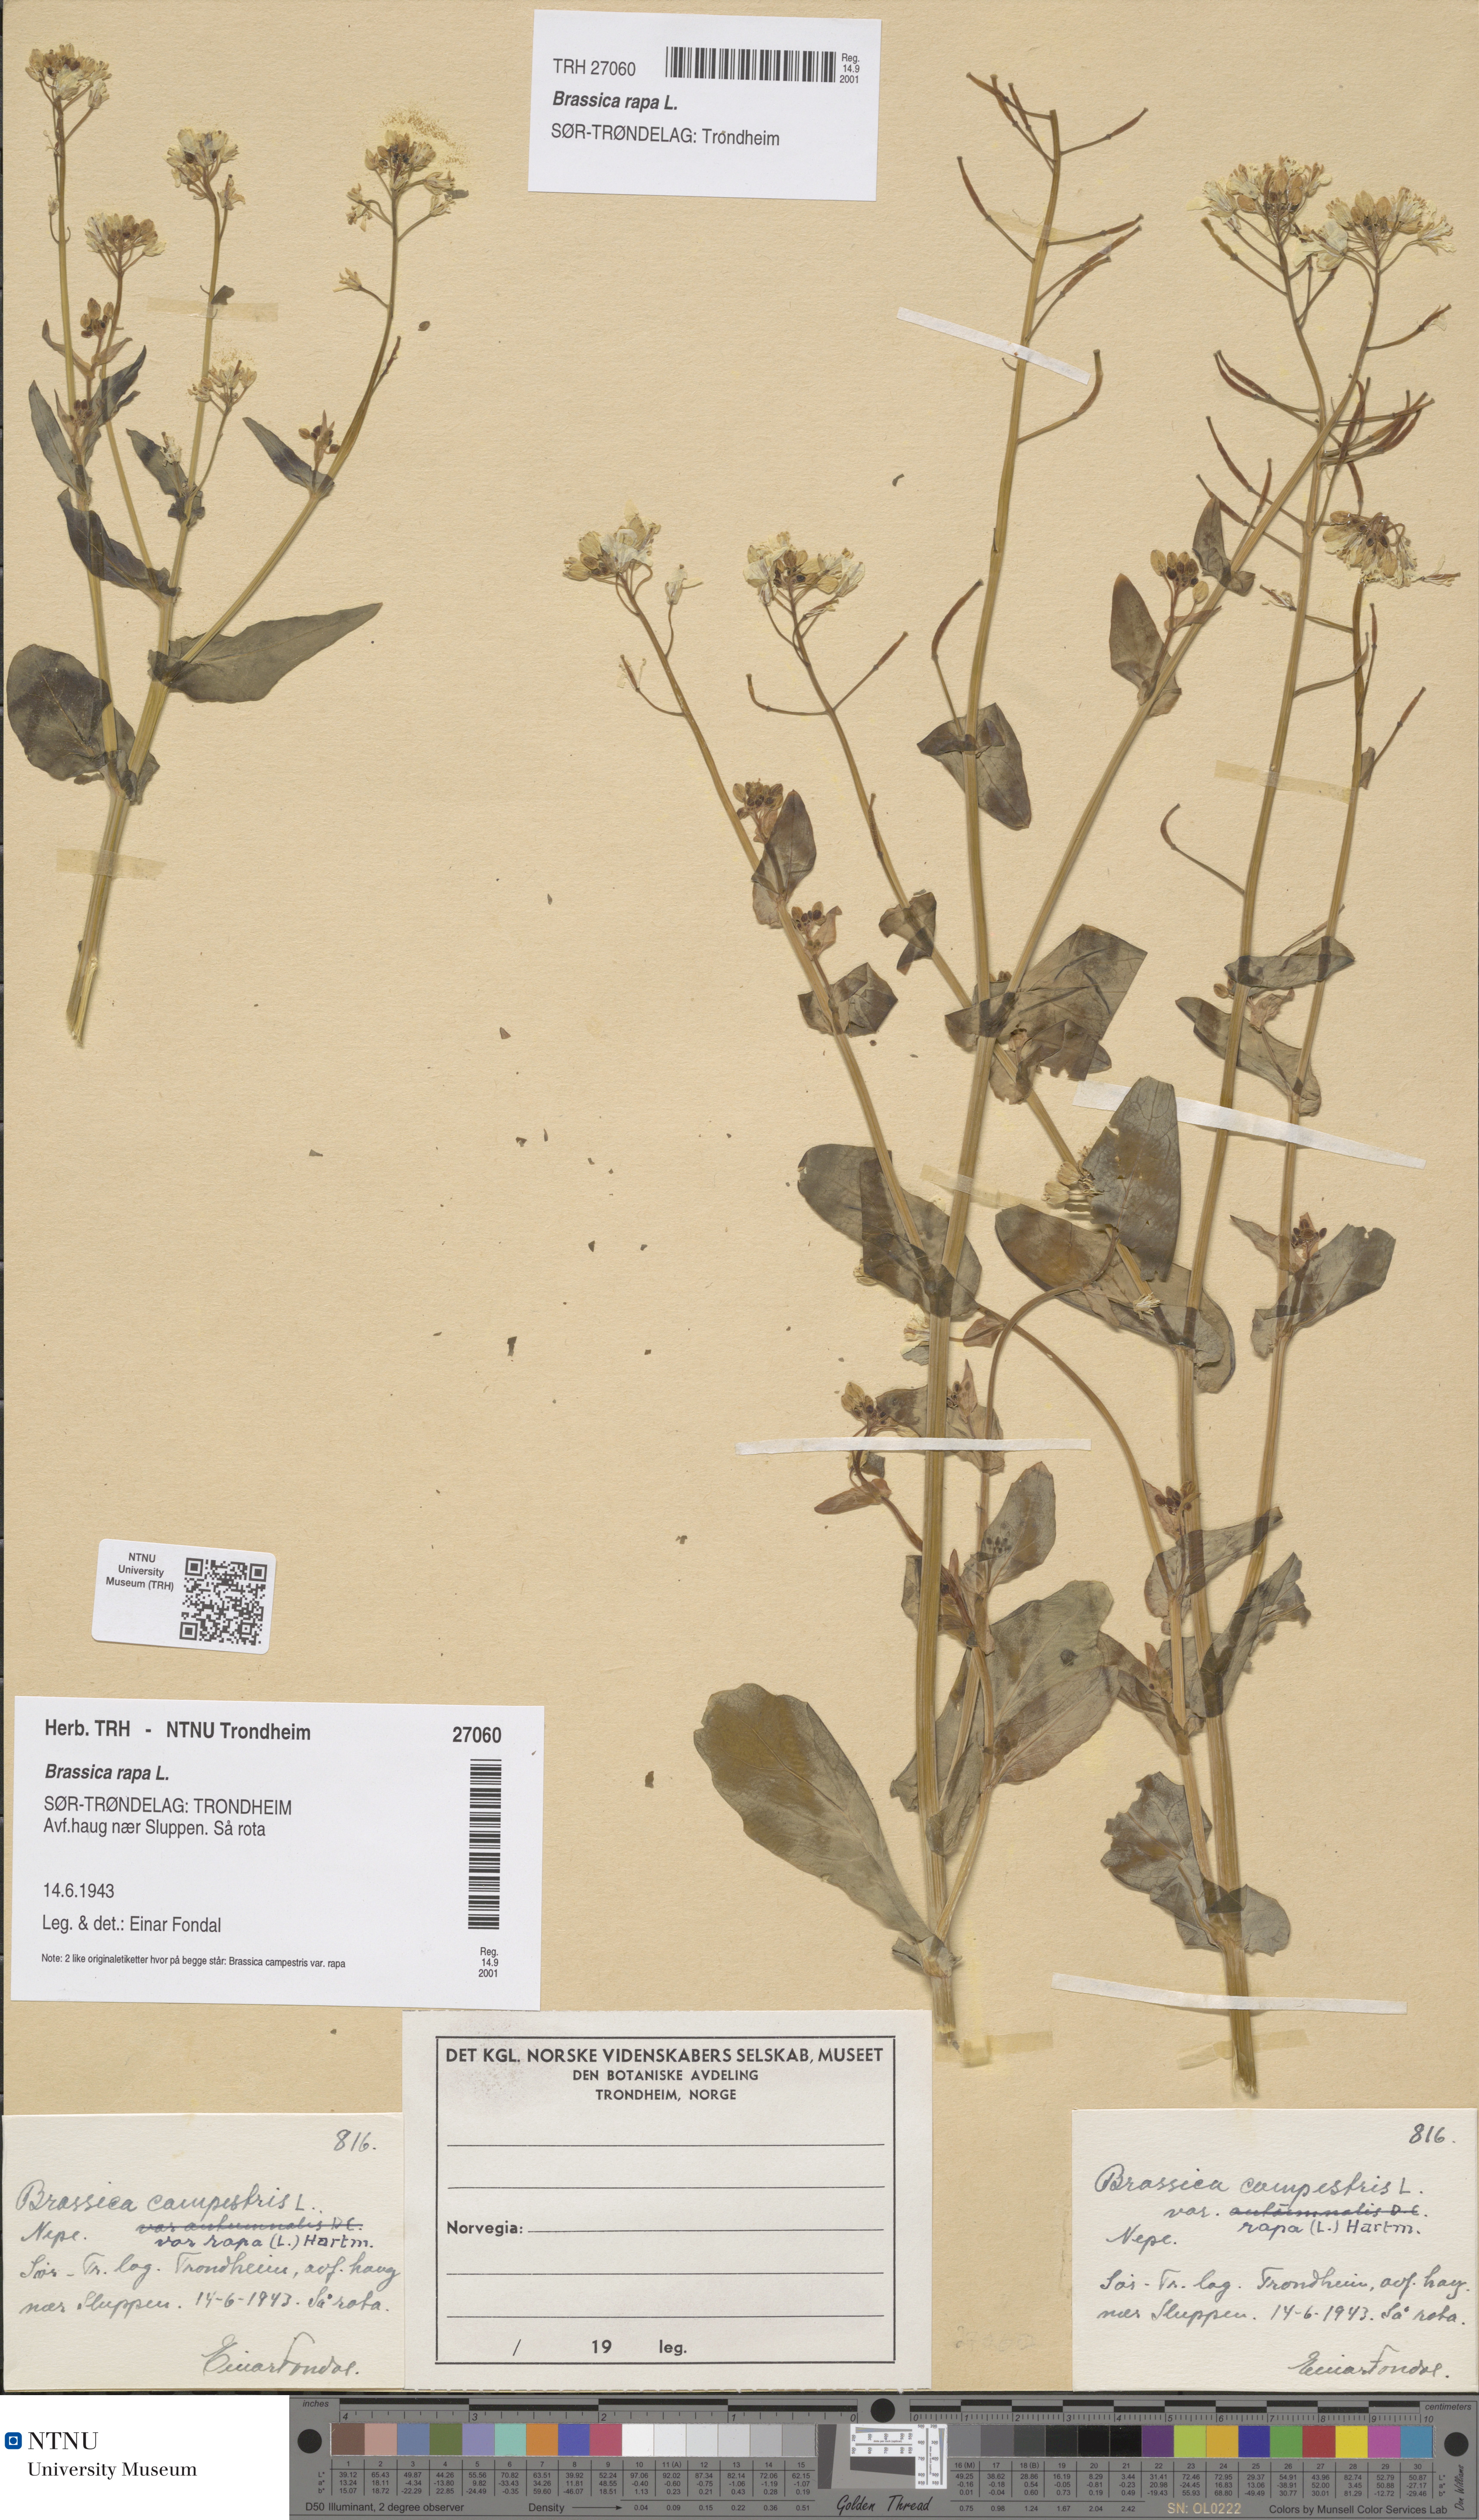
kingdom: Plantae
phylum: Tracheophyta
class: Magnoliopsida
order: Brassicales
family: Brassicaceae
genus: Brassica
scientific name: Brassica rapa
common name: Field mustard
